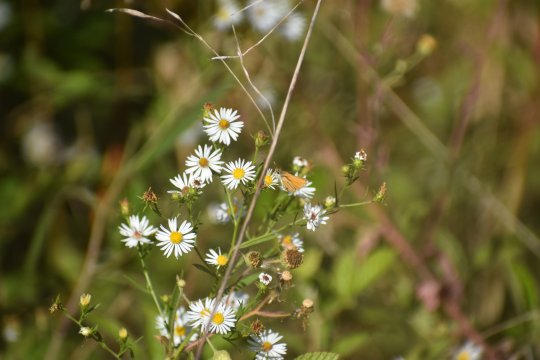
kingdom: Animalia
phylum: Arthropoda
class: Insecta
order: Lepidoptera
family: Hesperiidae
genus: Copaeodes
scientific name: Copaeodes minima
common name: Southern Skipperling
